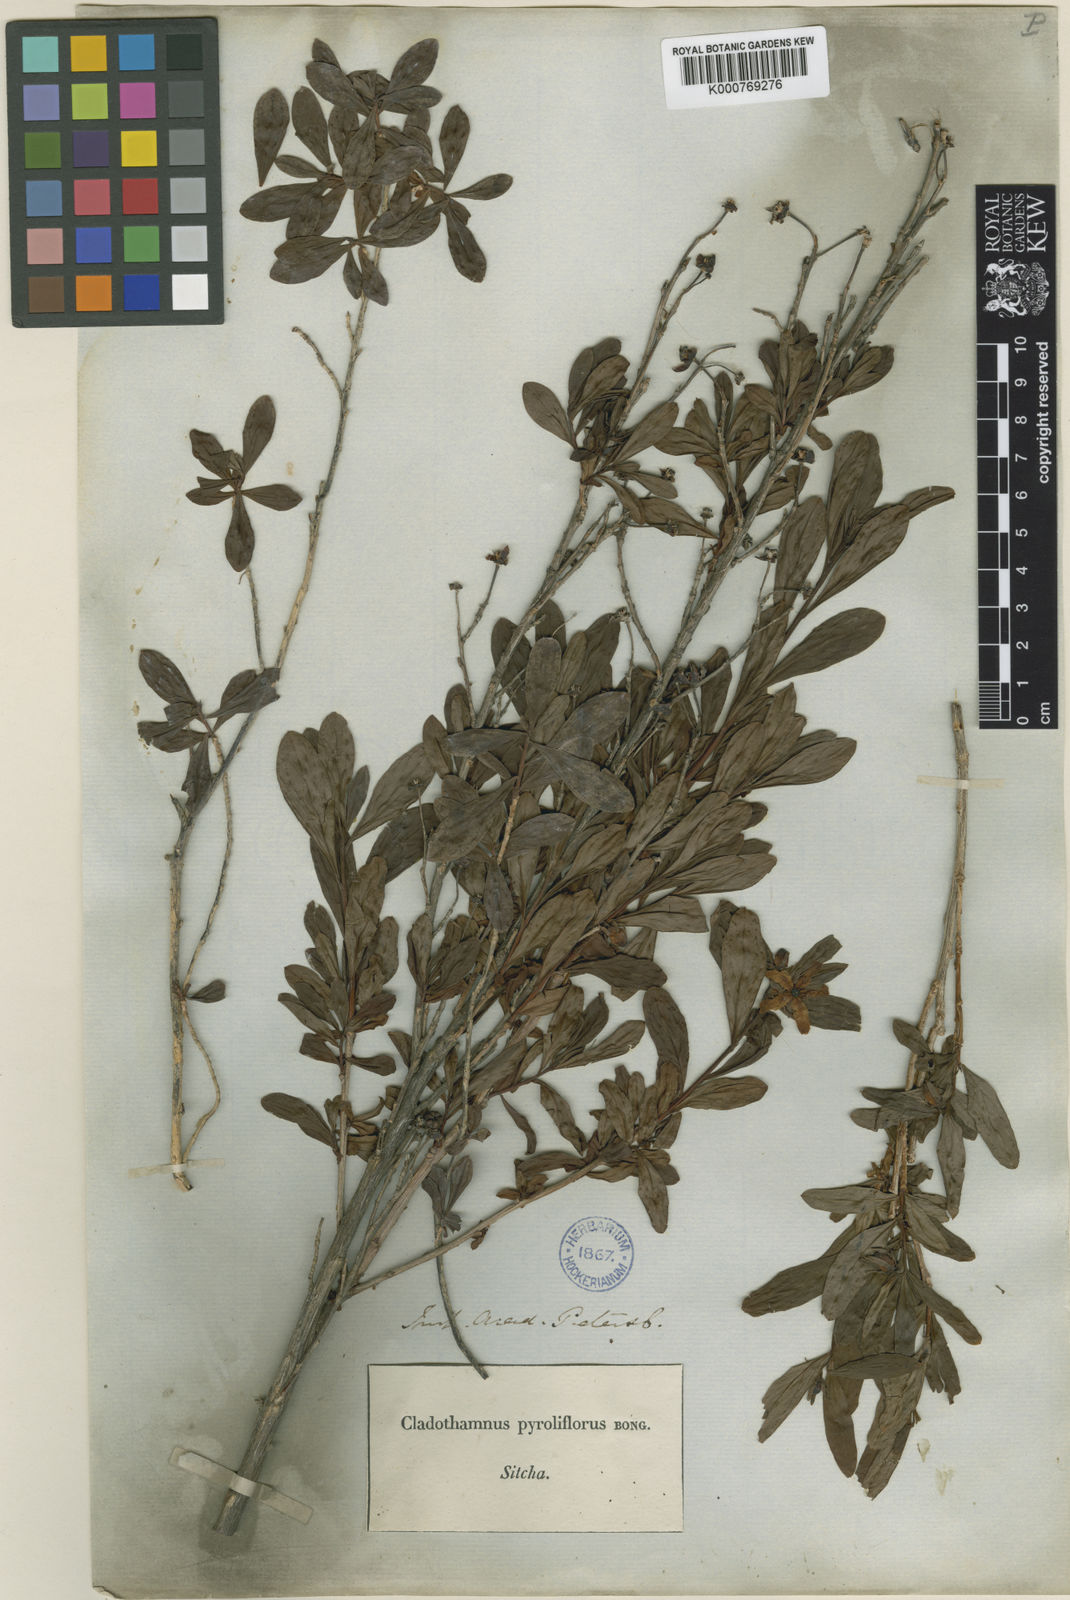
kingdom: Plantae
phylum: Tracheophyta
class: Magnoliopsida
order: Ericales
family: Ericaceae
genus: Elliottia
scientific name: Elliottia pyroliflora
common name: Copperbush
